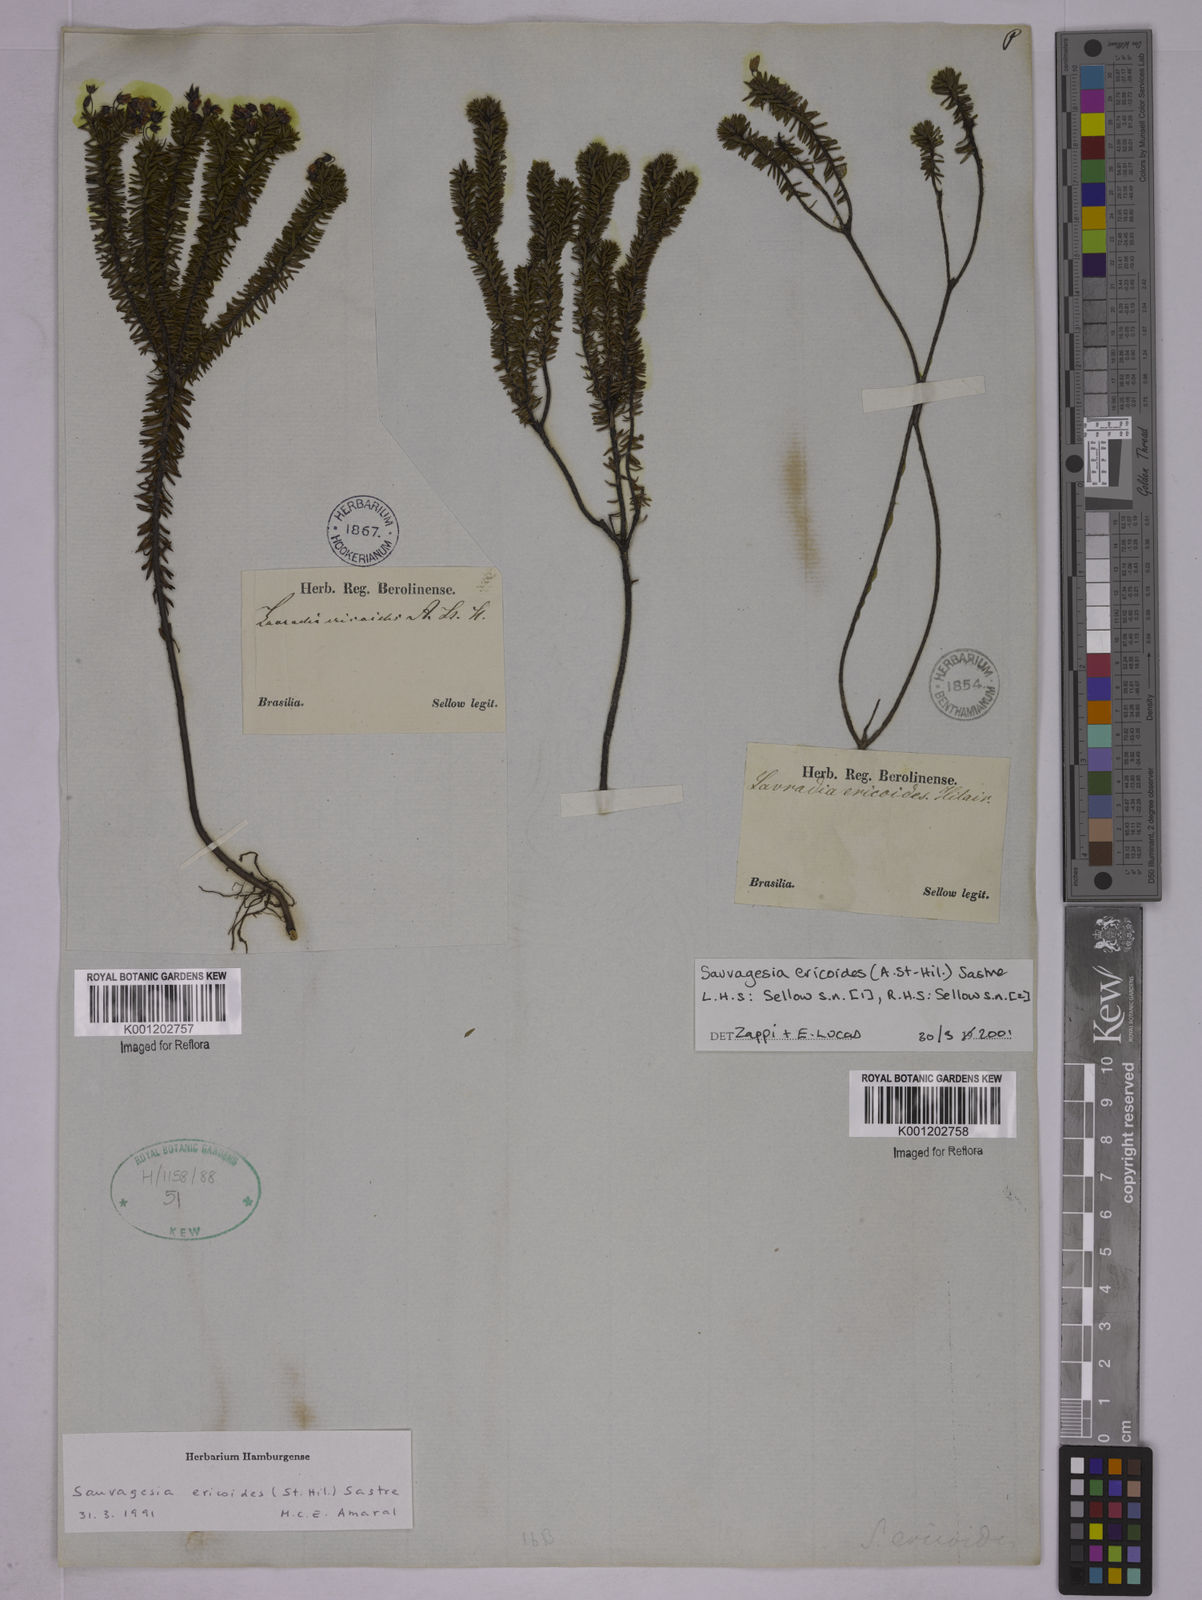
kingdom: Plantae
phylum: Tracheophyta
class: Magnoliopsida
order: Malpighiales
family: Ochnaceae
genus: Sauvagesia
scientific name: Sauvagesia ericoides
